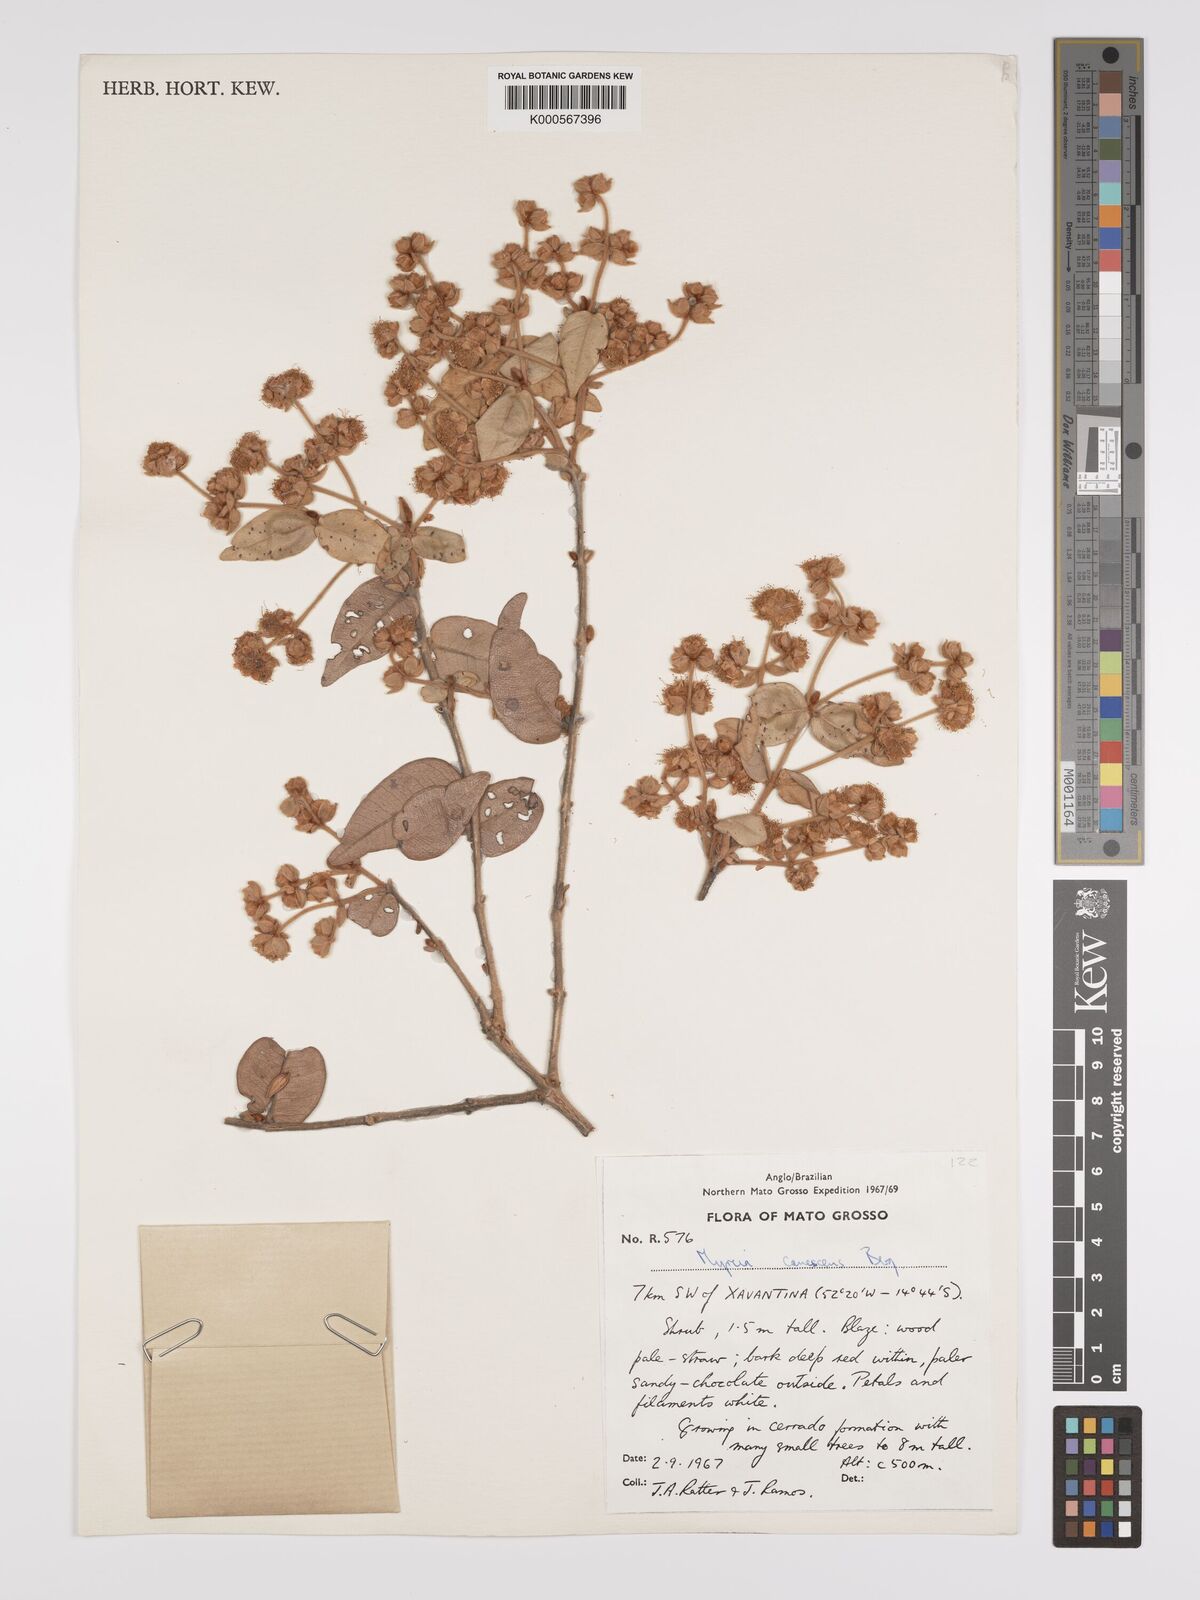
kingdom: Plantae
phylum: Tracheophyta
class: Magnoliopsida
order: Myrtales
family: Myrtaceae
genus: Myrcia
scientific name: Myrcia canescens
